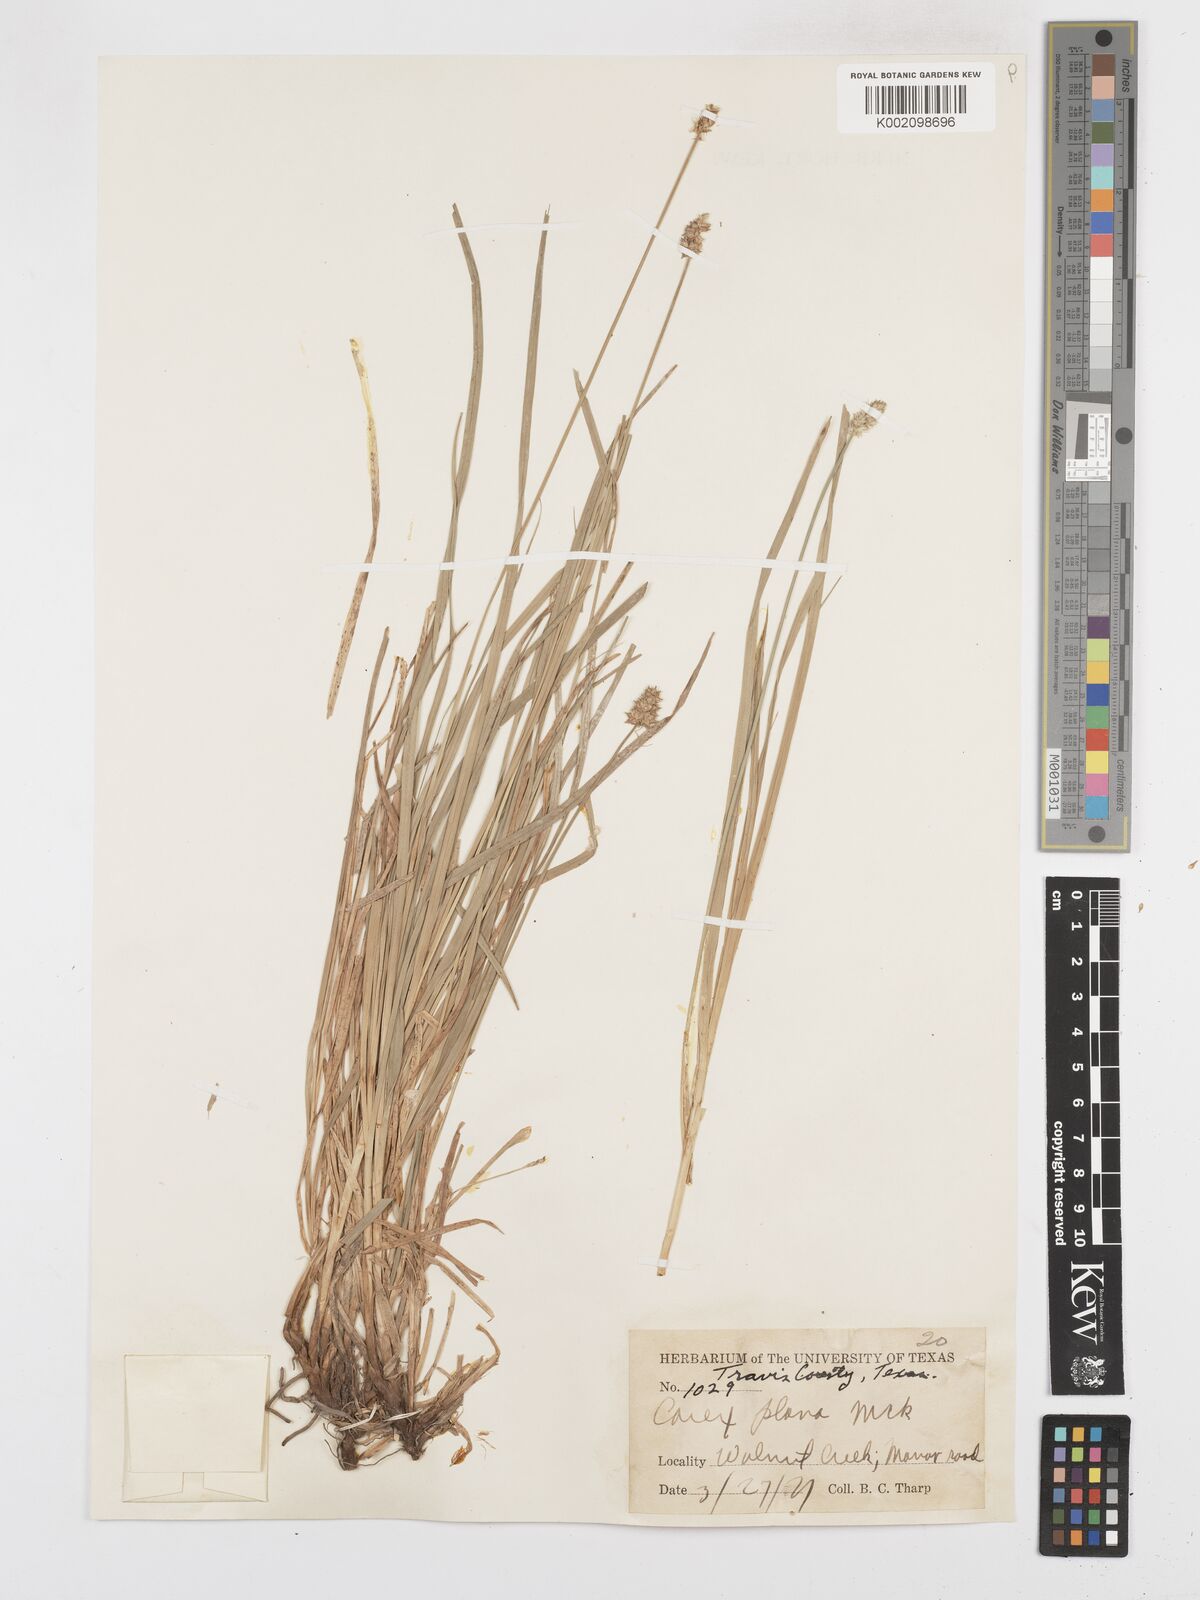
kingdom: Plantae
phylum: Tracheophyta
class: Liliopsida
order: Poales
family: Cyperaceae
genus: Carex
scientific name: Carex muehlenbergii
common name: Muhlenberg's bracted sedge
